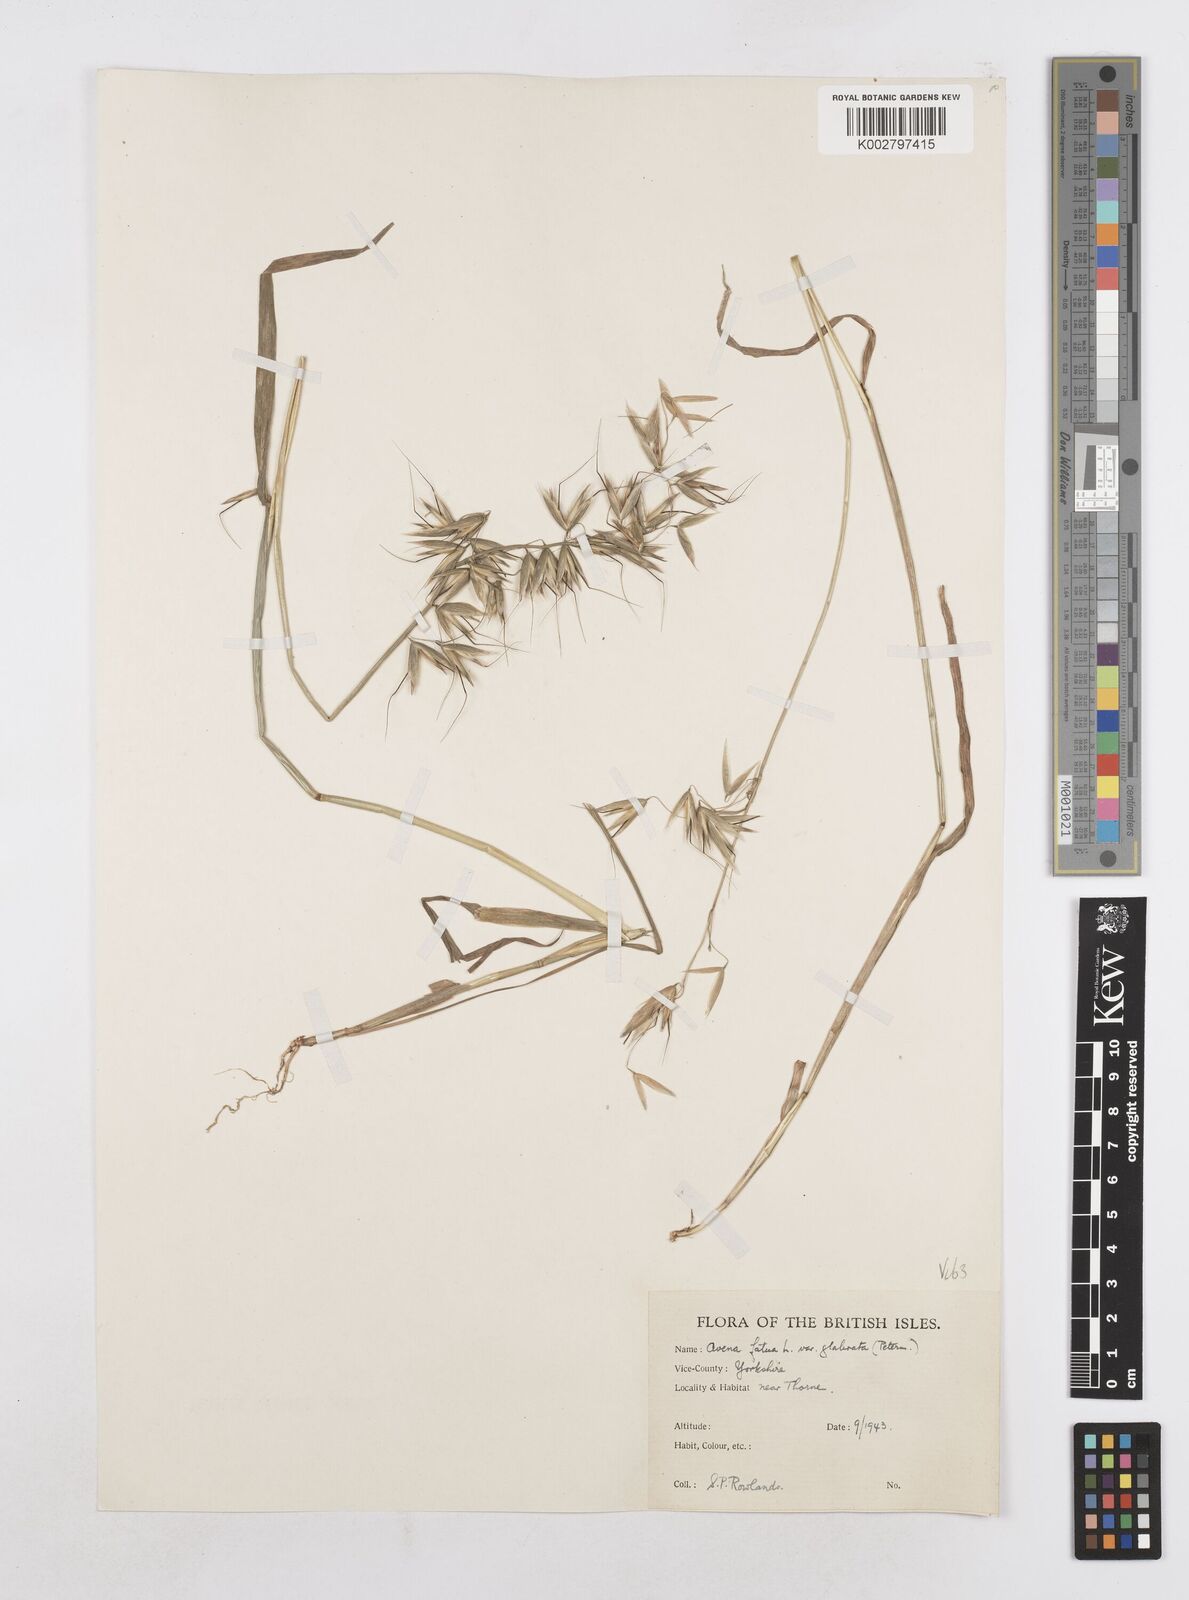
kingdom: Plantae
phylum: Tracheophyta
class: Liliopsida
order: Poales
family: Poaceae
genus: Avena
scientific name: Avena fatua
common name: Wild oat
